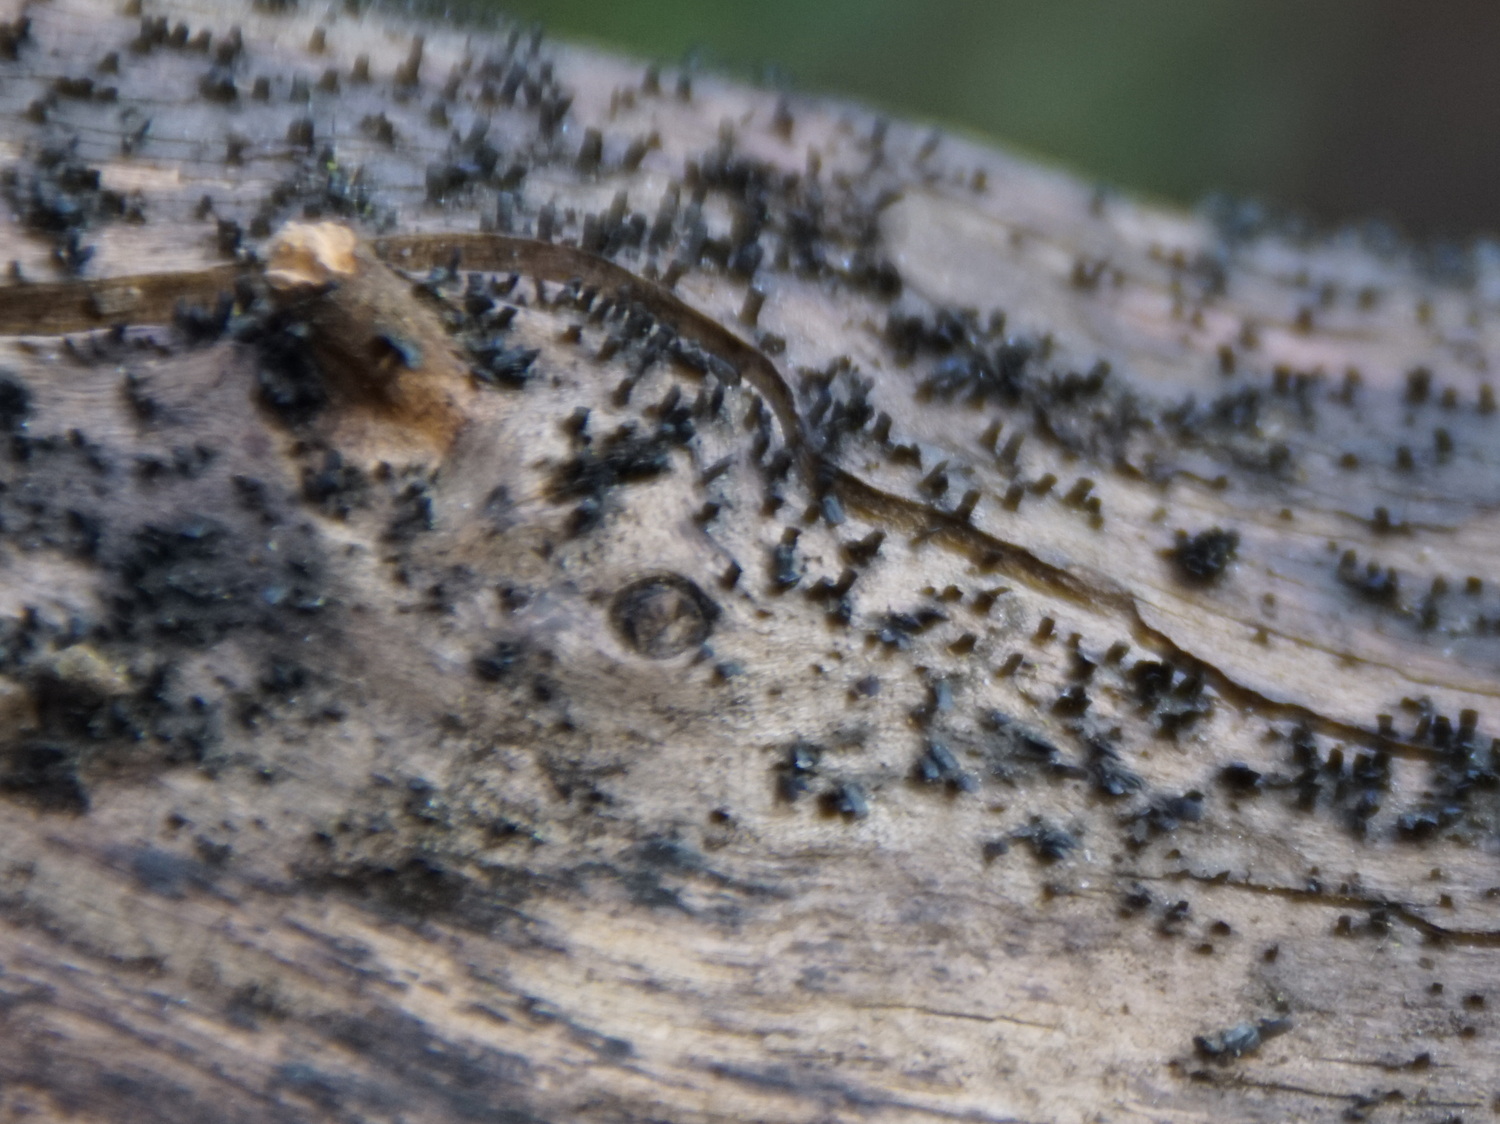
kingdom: Fungi
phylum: Ascomycota
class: Eurotiomycetes
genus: Glyphium
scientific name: Glyphium elatum
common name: kuløkse
